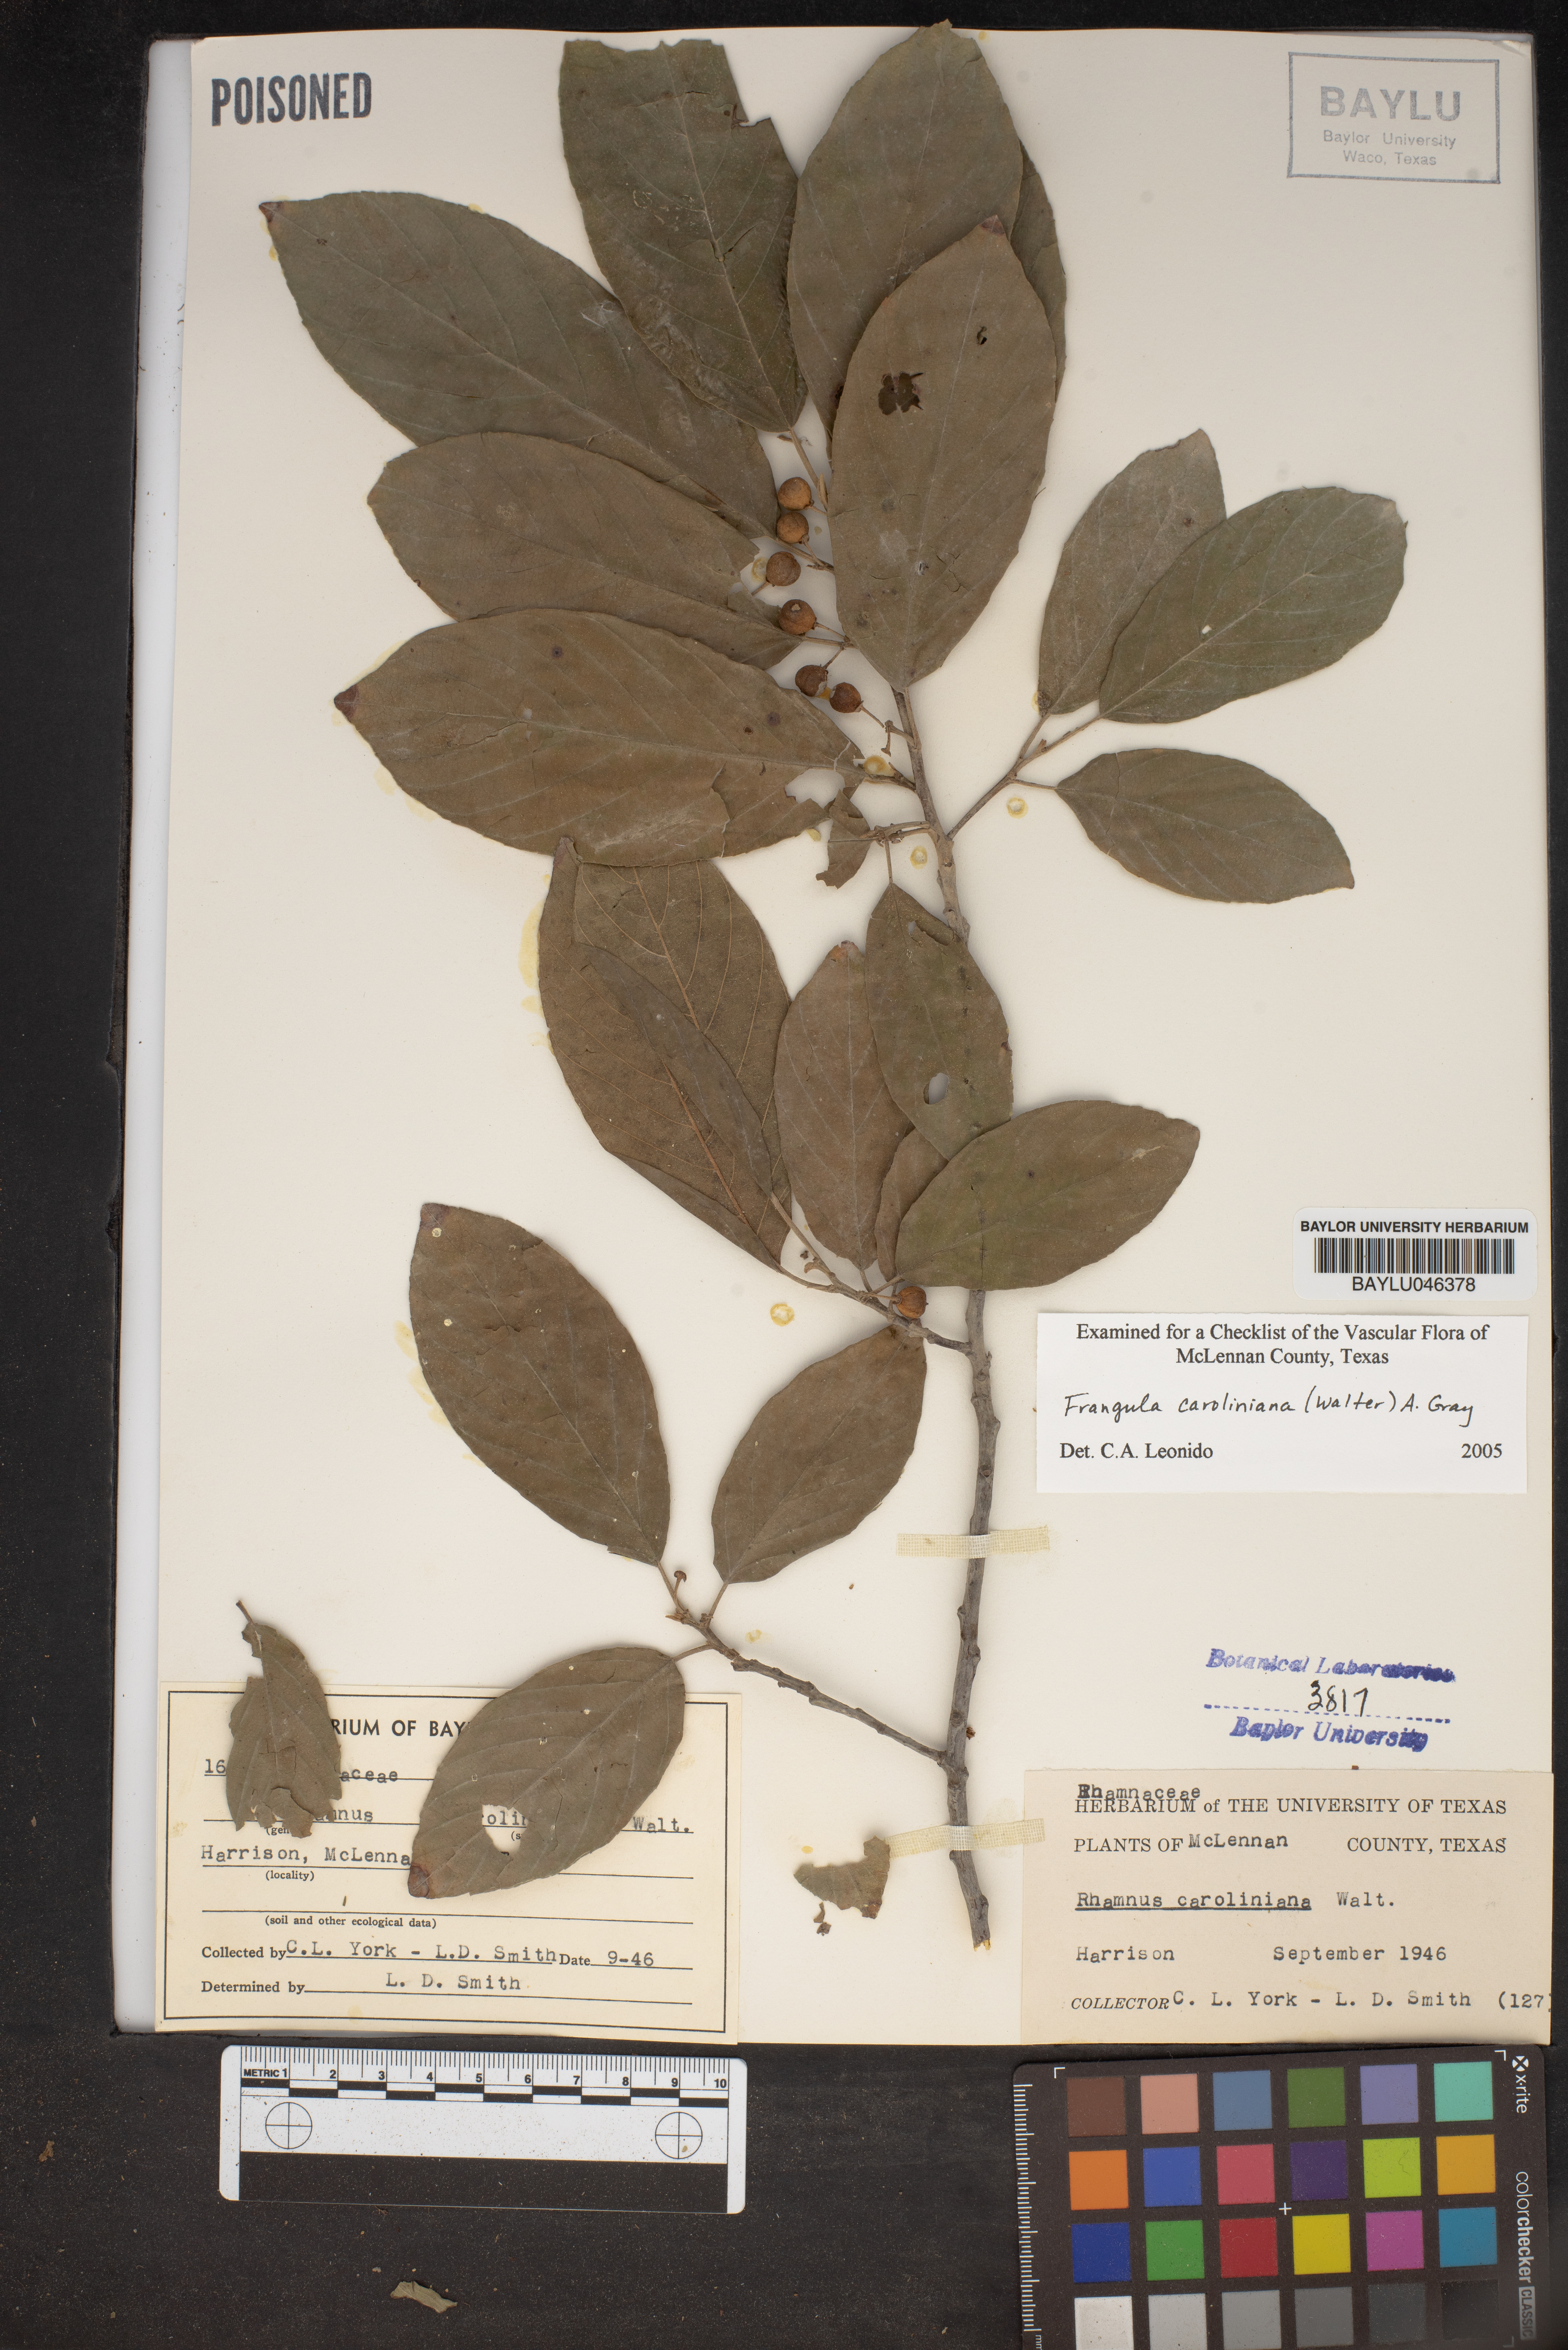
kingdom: Plantae
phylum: Tracheophyta
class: Magnoliopsida
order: Rosales
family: Rhamnaceae
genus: Frangula
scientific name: Frangula caroliniana
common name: Carolina buckthorn
